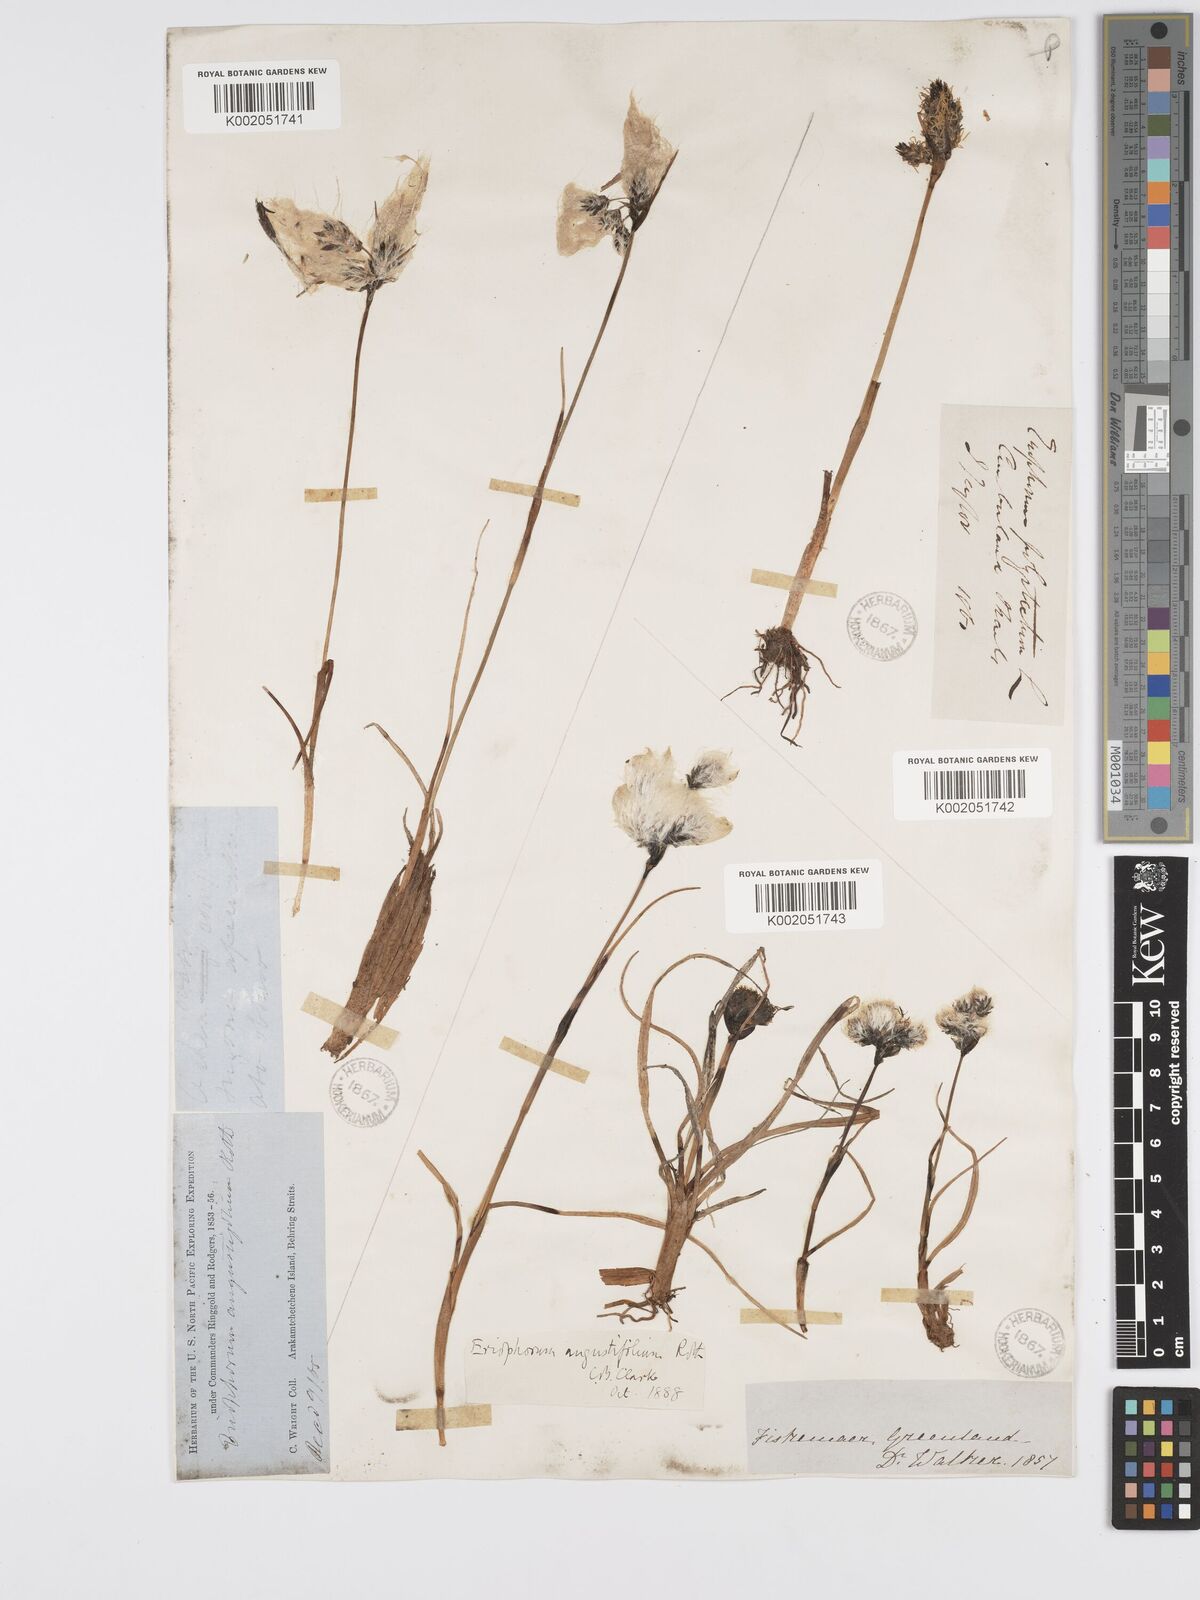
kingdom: Plantae
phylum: Tracheophyta
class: Liliopsida
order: Poales
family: Cyperaceae
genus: Eriophorum
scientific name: Eriophorum angustifolium
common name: Common cottongrass
